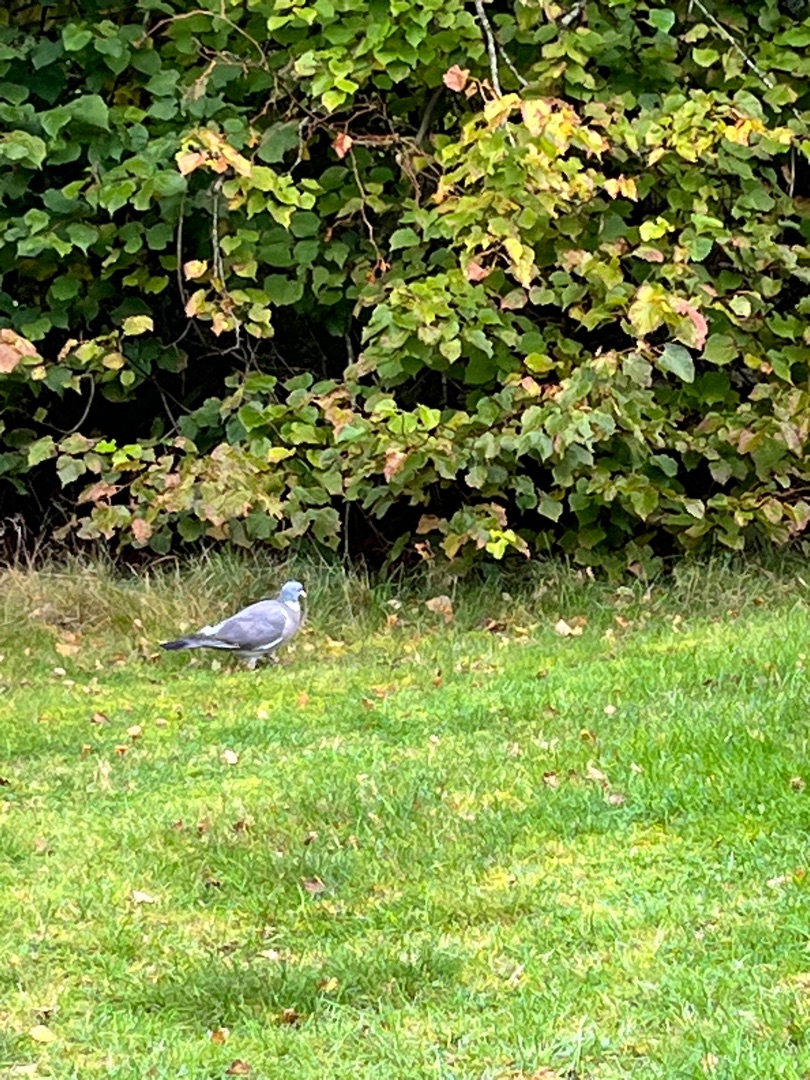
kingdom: Animalia
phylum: Chordata
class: Aves
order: Columbiformes
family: Columbidae
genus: Columba
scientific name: Columba palumbus
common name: Ringdue
